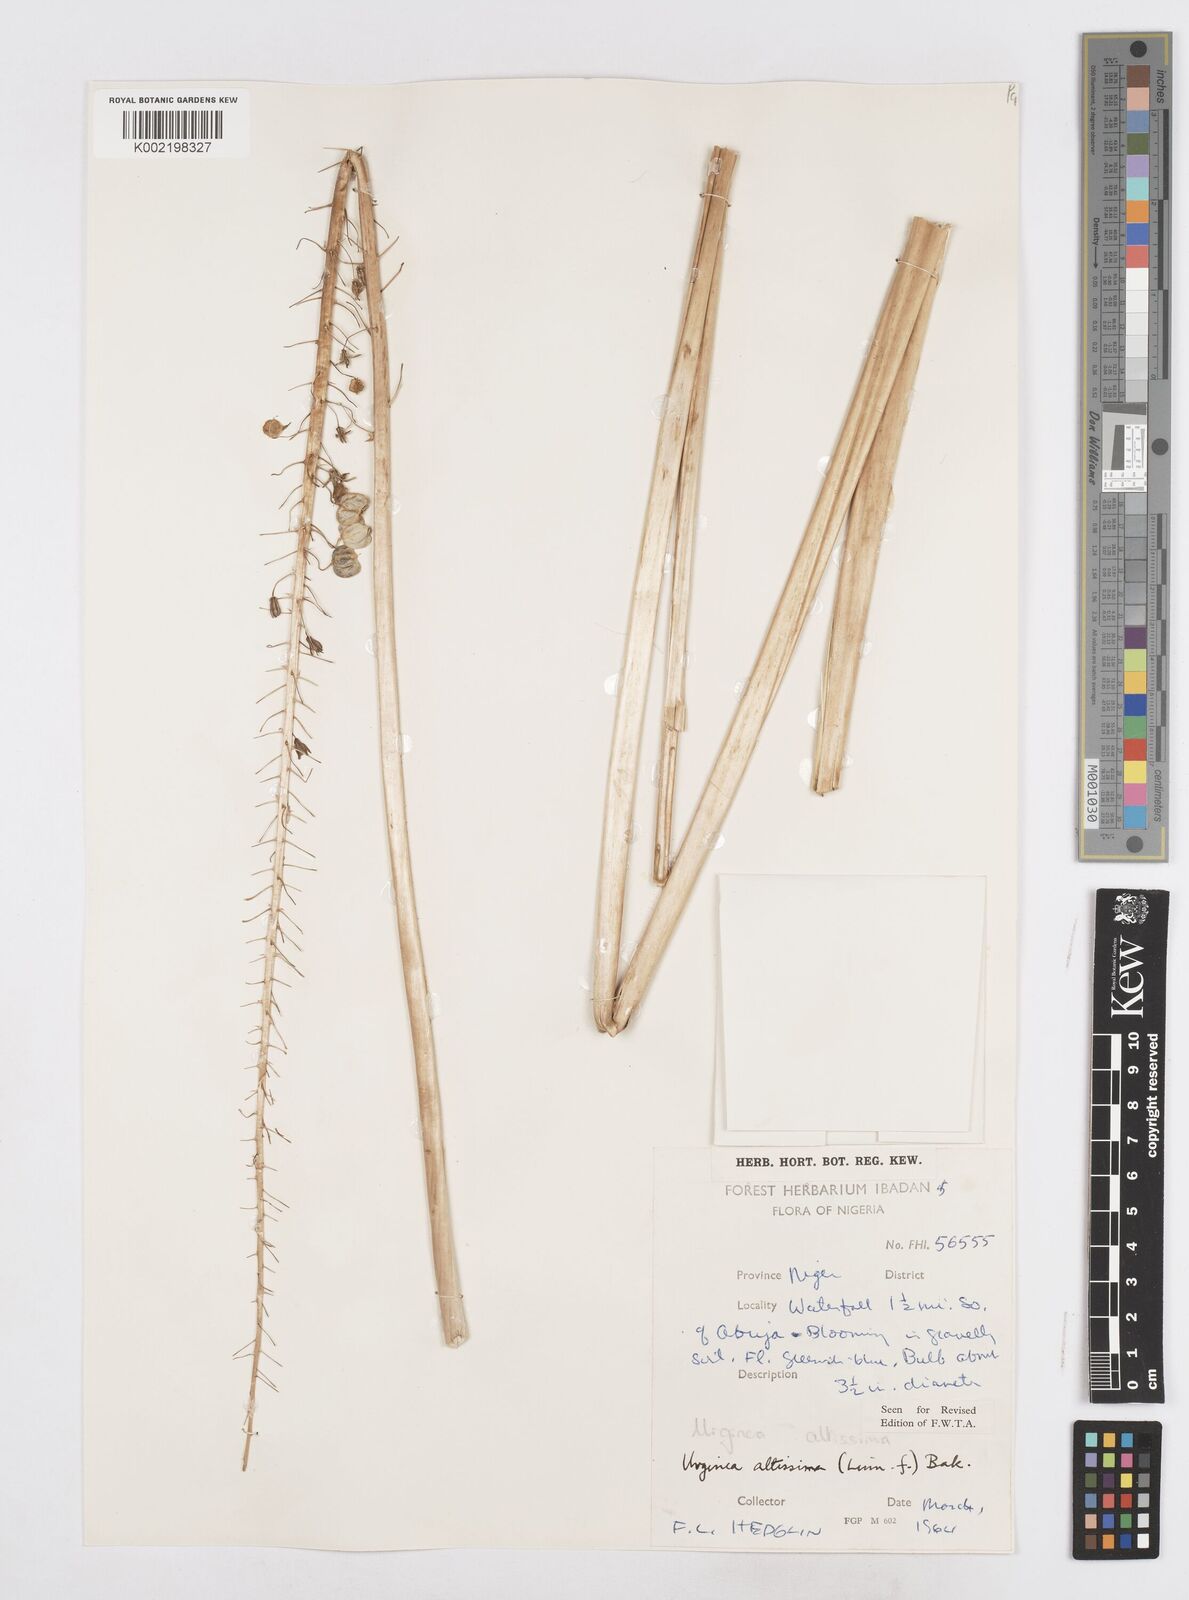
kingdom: Plantae
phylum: Tracheophyta
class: Liliopsida
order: Asparagales
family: Asparagaceae
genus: Drimia
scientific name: Drimia altissima
